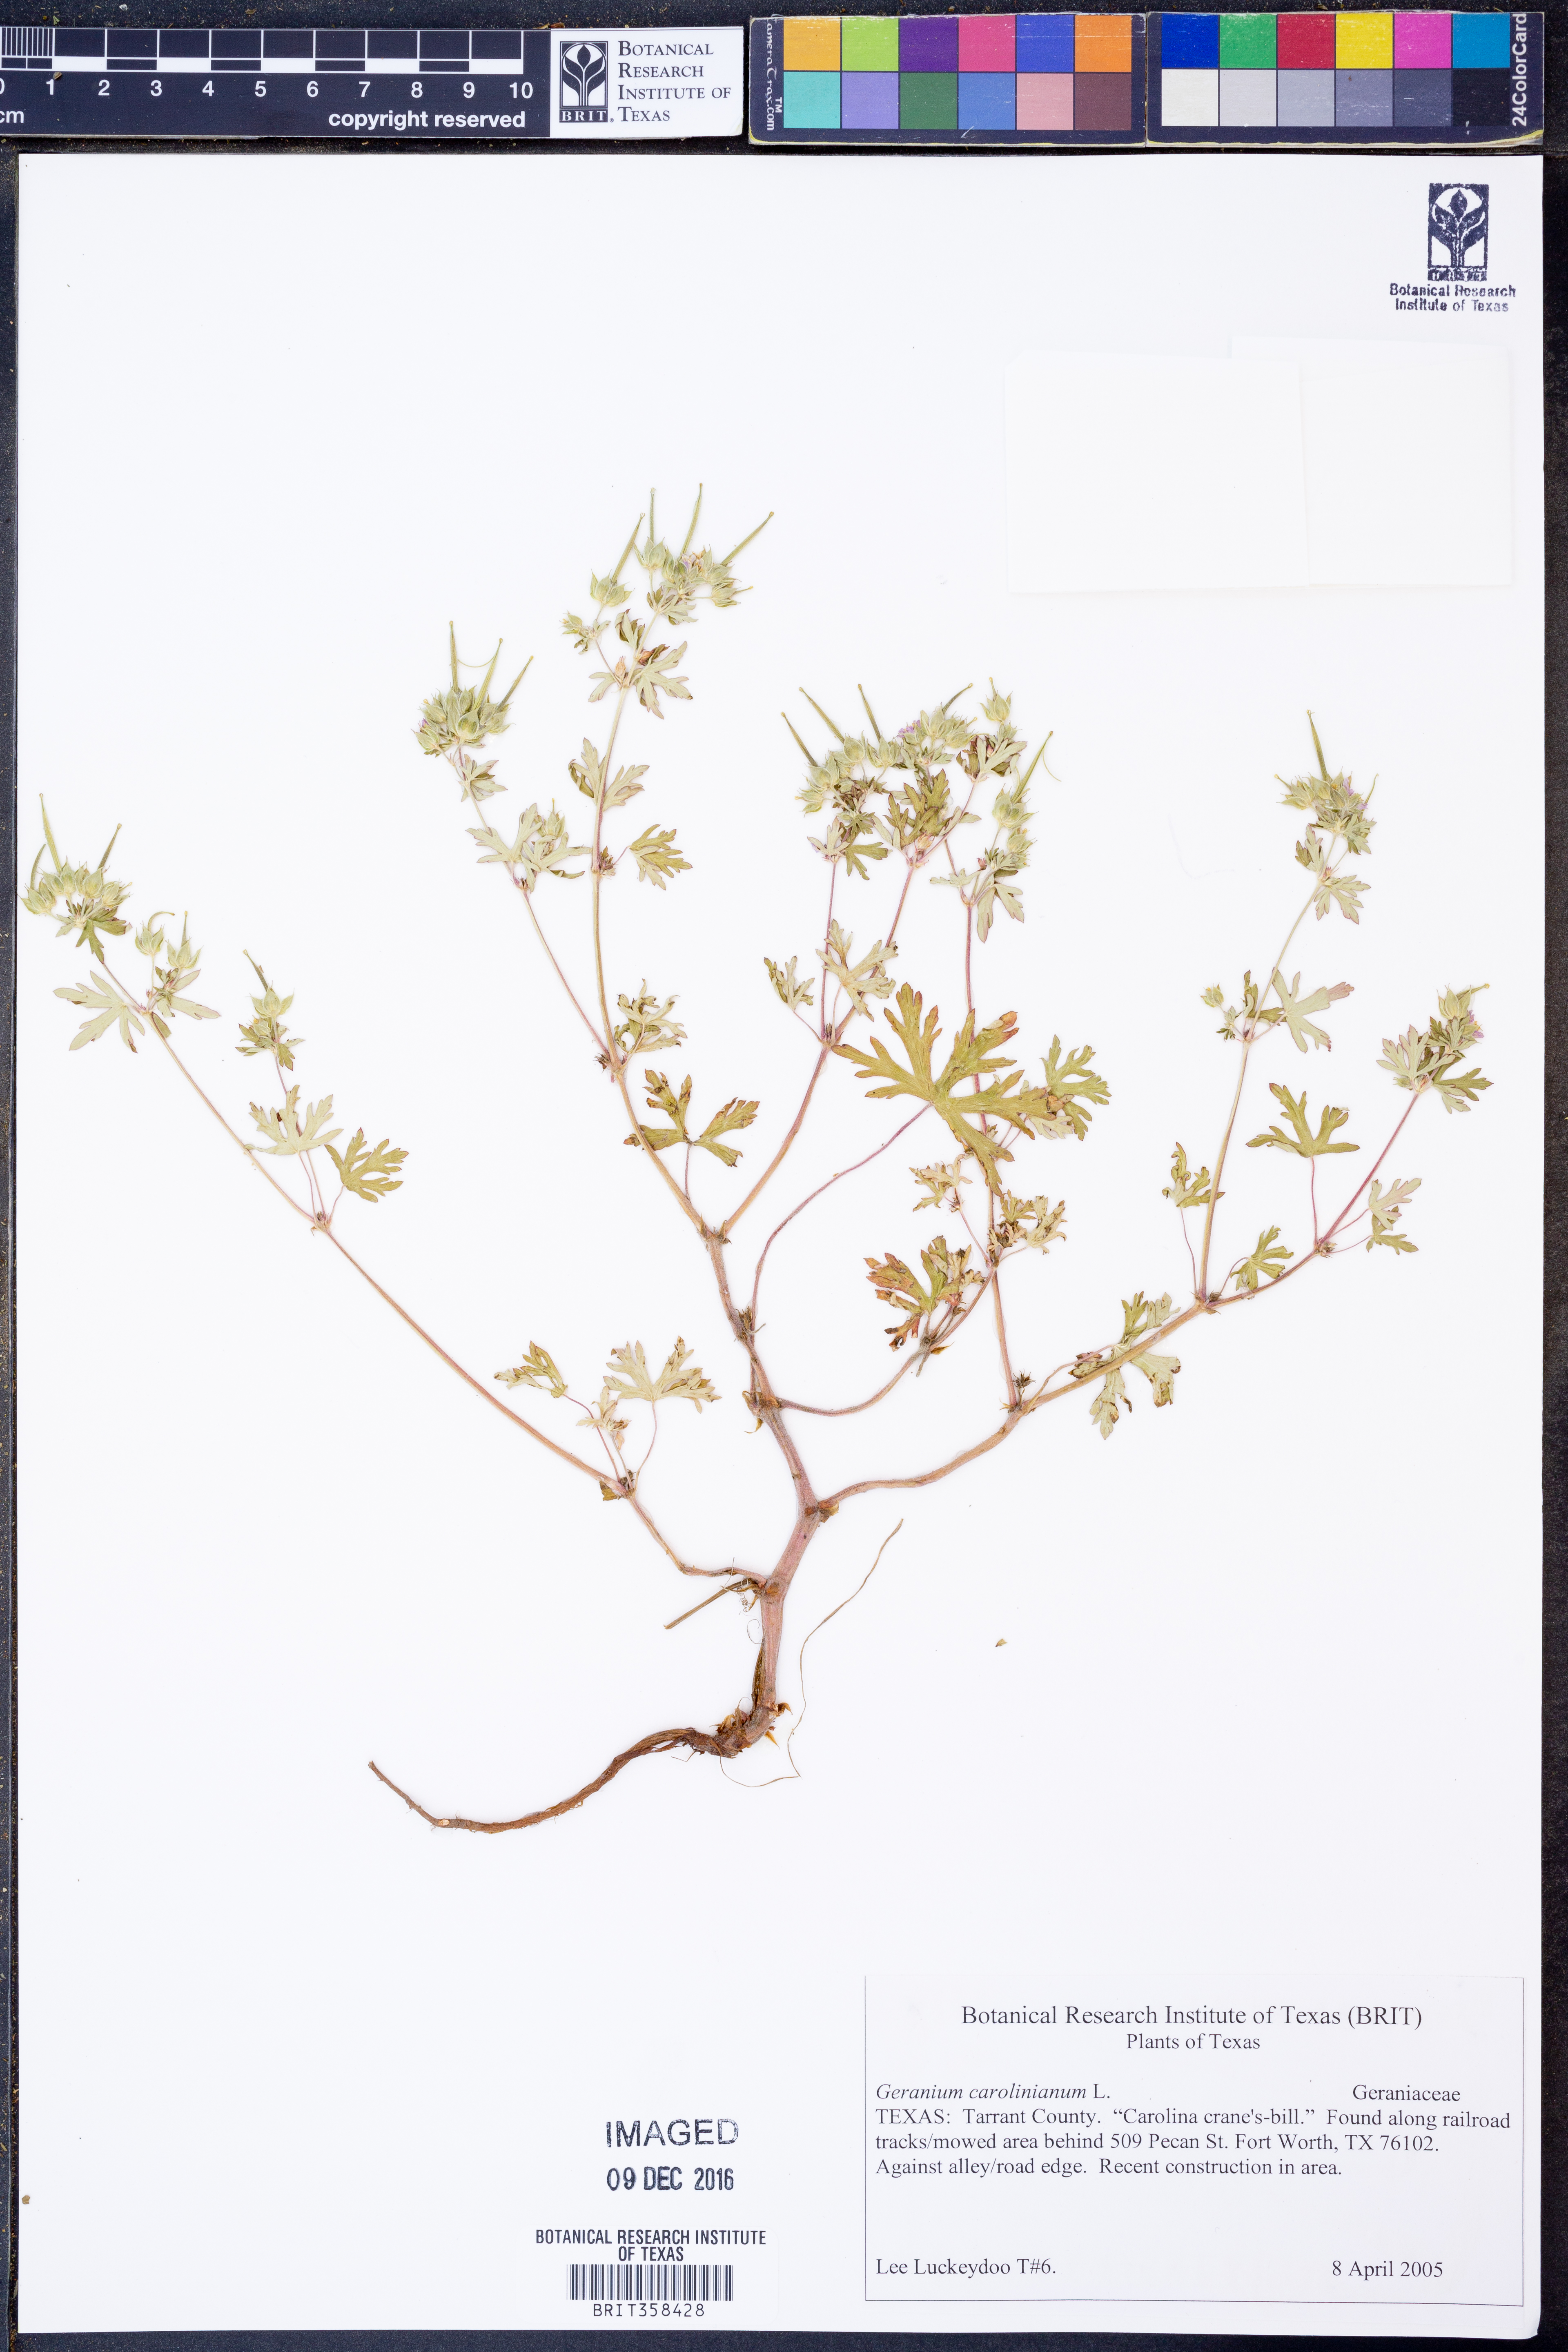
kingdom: Plantae
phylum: Tracheophyta
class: Magnoliopsida
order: Geraniales
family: Geraniaceae
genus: Geranium
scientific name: Geranium carolinianum
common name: Carolina crane's-bill
